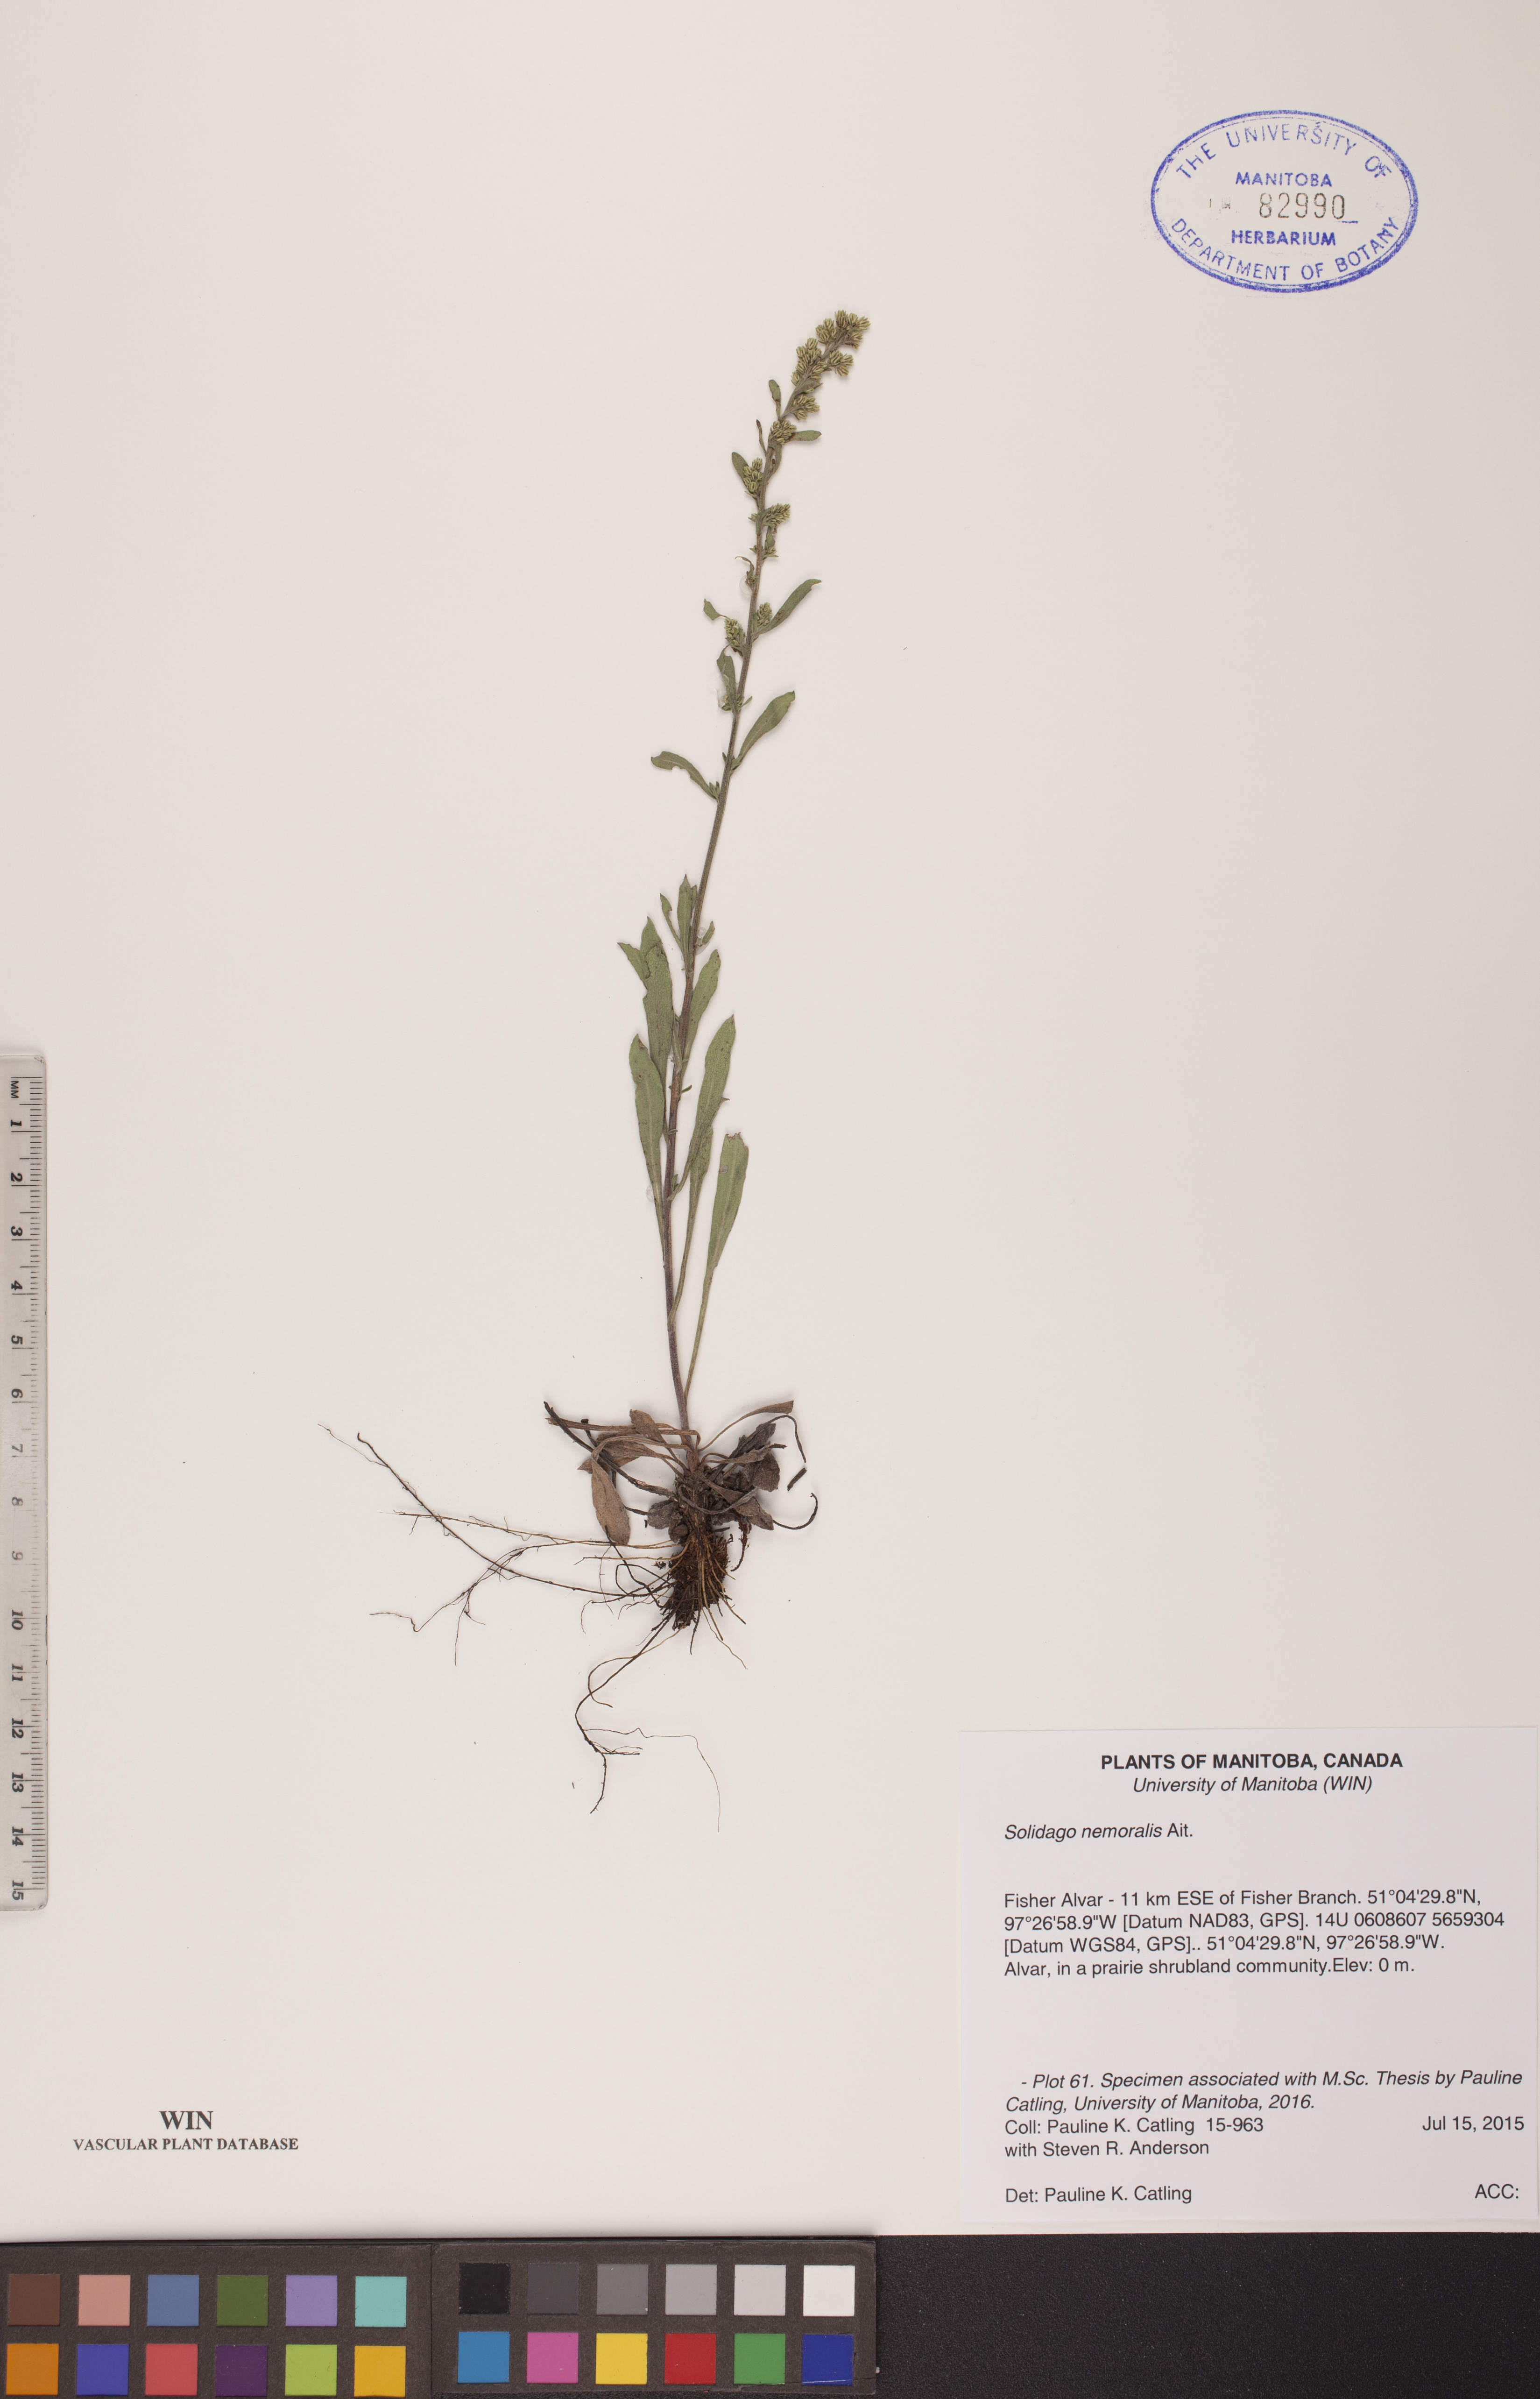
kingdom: Plantae
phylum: Tracheophyta
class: Magnoliopsida
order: Asterales
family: Asteraceae
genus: Solidago
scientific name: Solidago nemoralis
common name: Grey goldenrod
